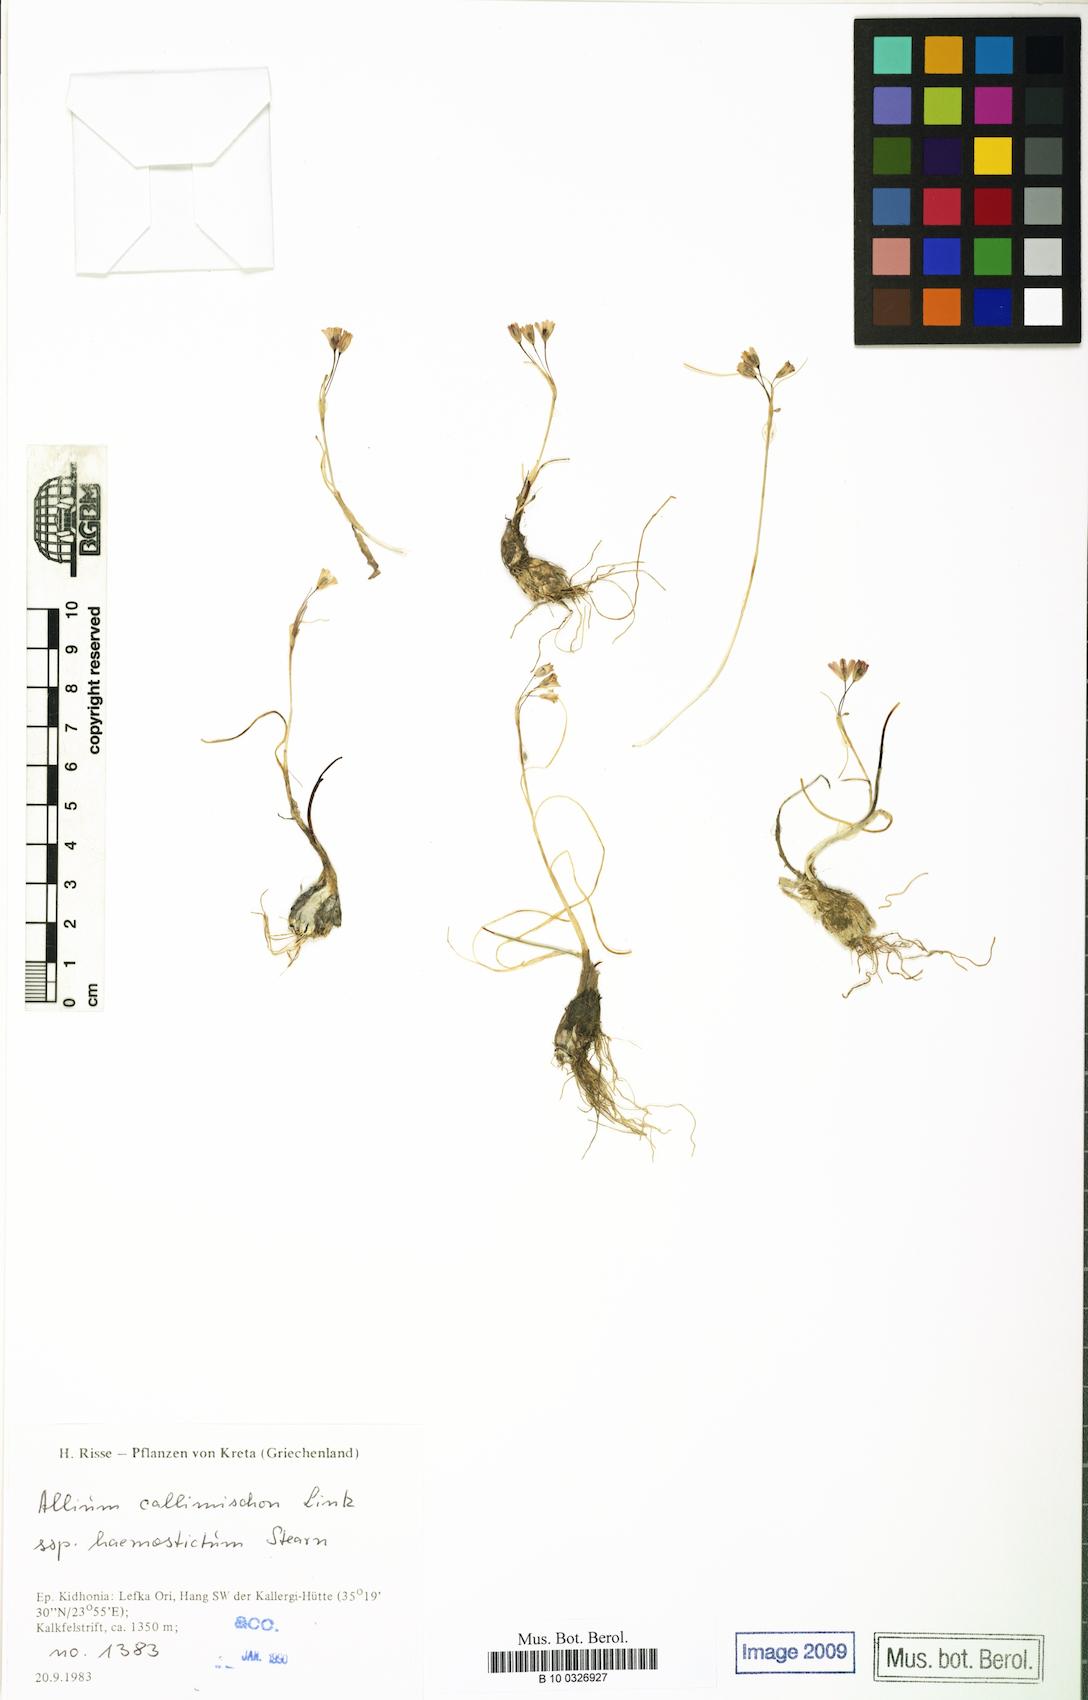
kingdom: Plantae
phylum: Tracheophyta
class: Liliopsida
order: Asparagales
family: Amaryllidaceae
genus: Allium
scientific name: Allium callimischon
